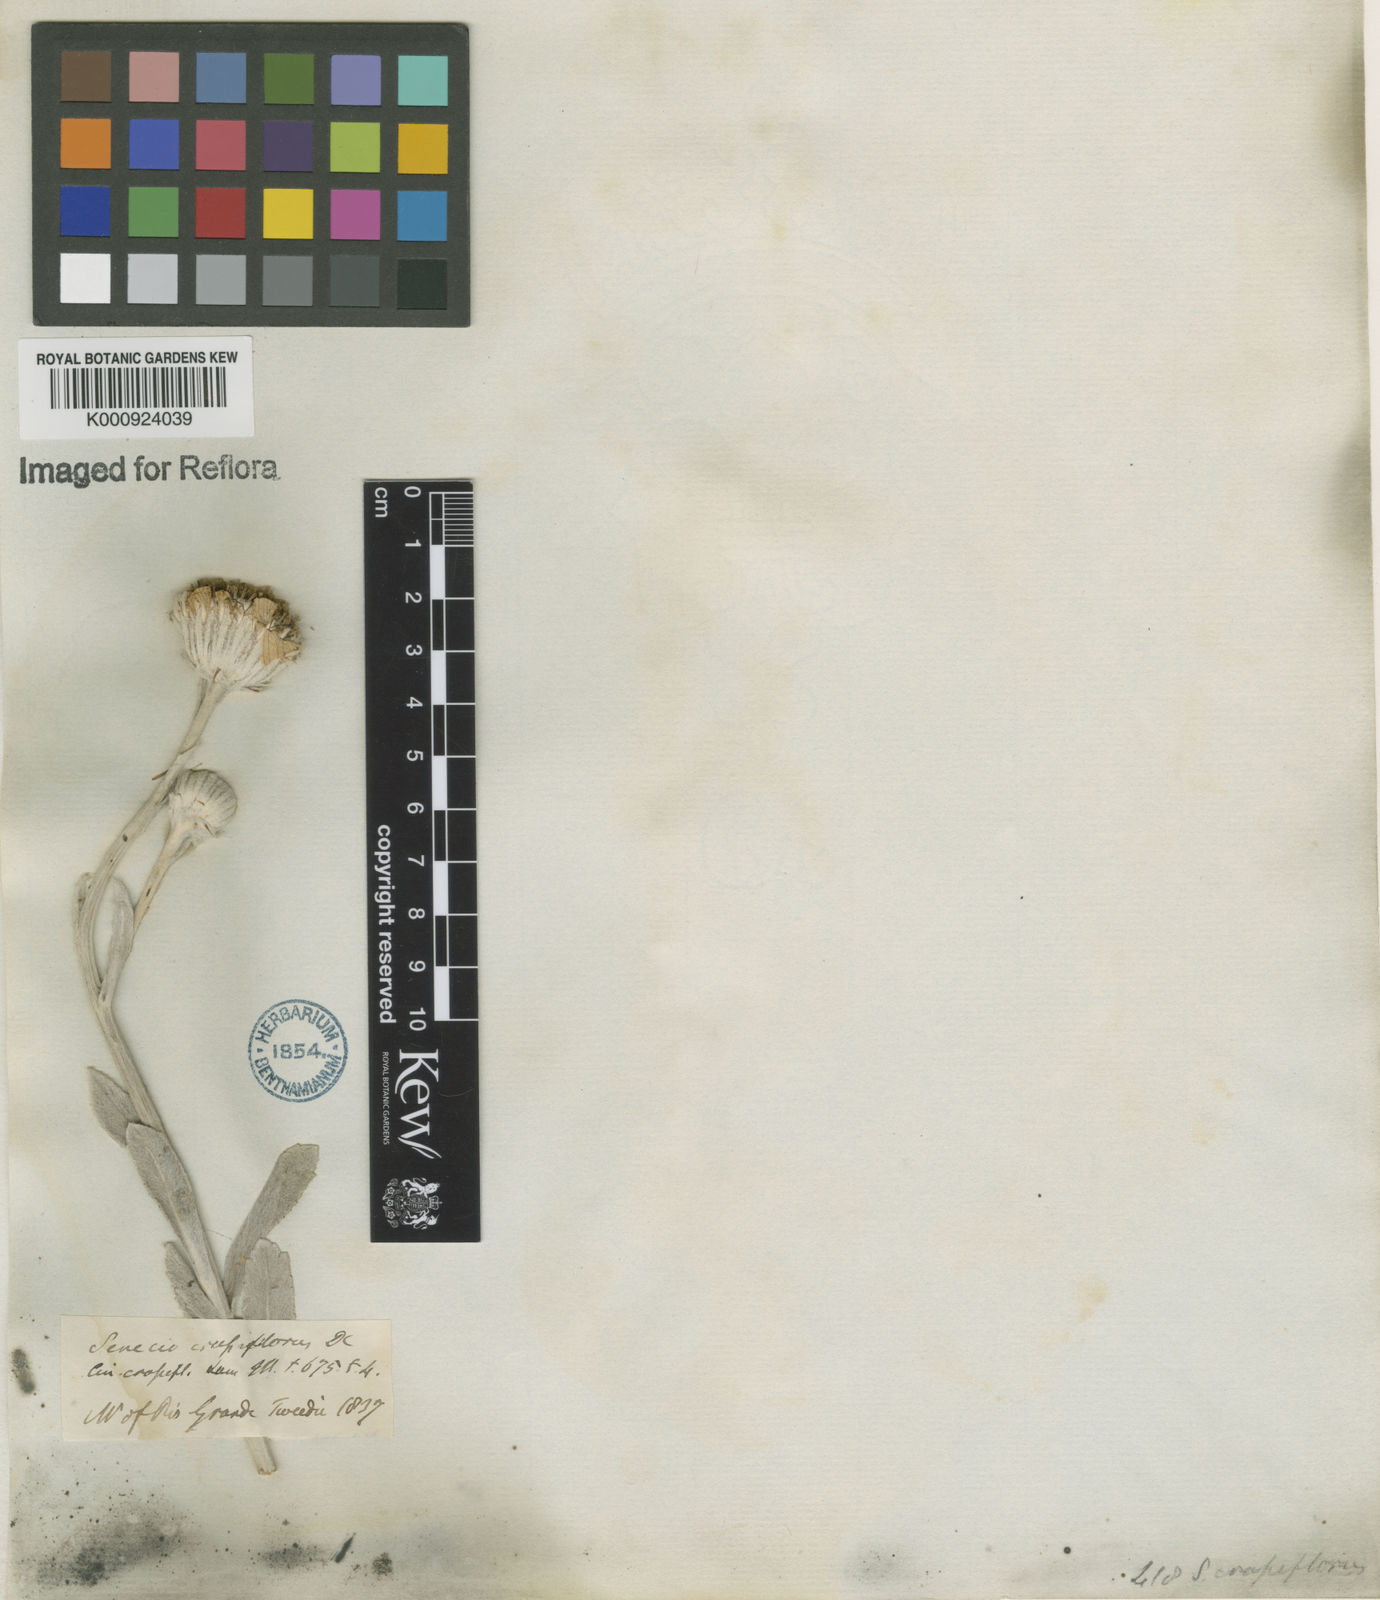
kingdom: Plantae
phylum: Tracheophyta
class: Magnoliopsida
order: Asterales
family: Asteraceae
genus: Senecio
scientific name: Senecio crassiflorus
